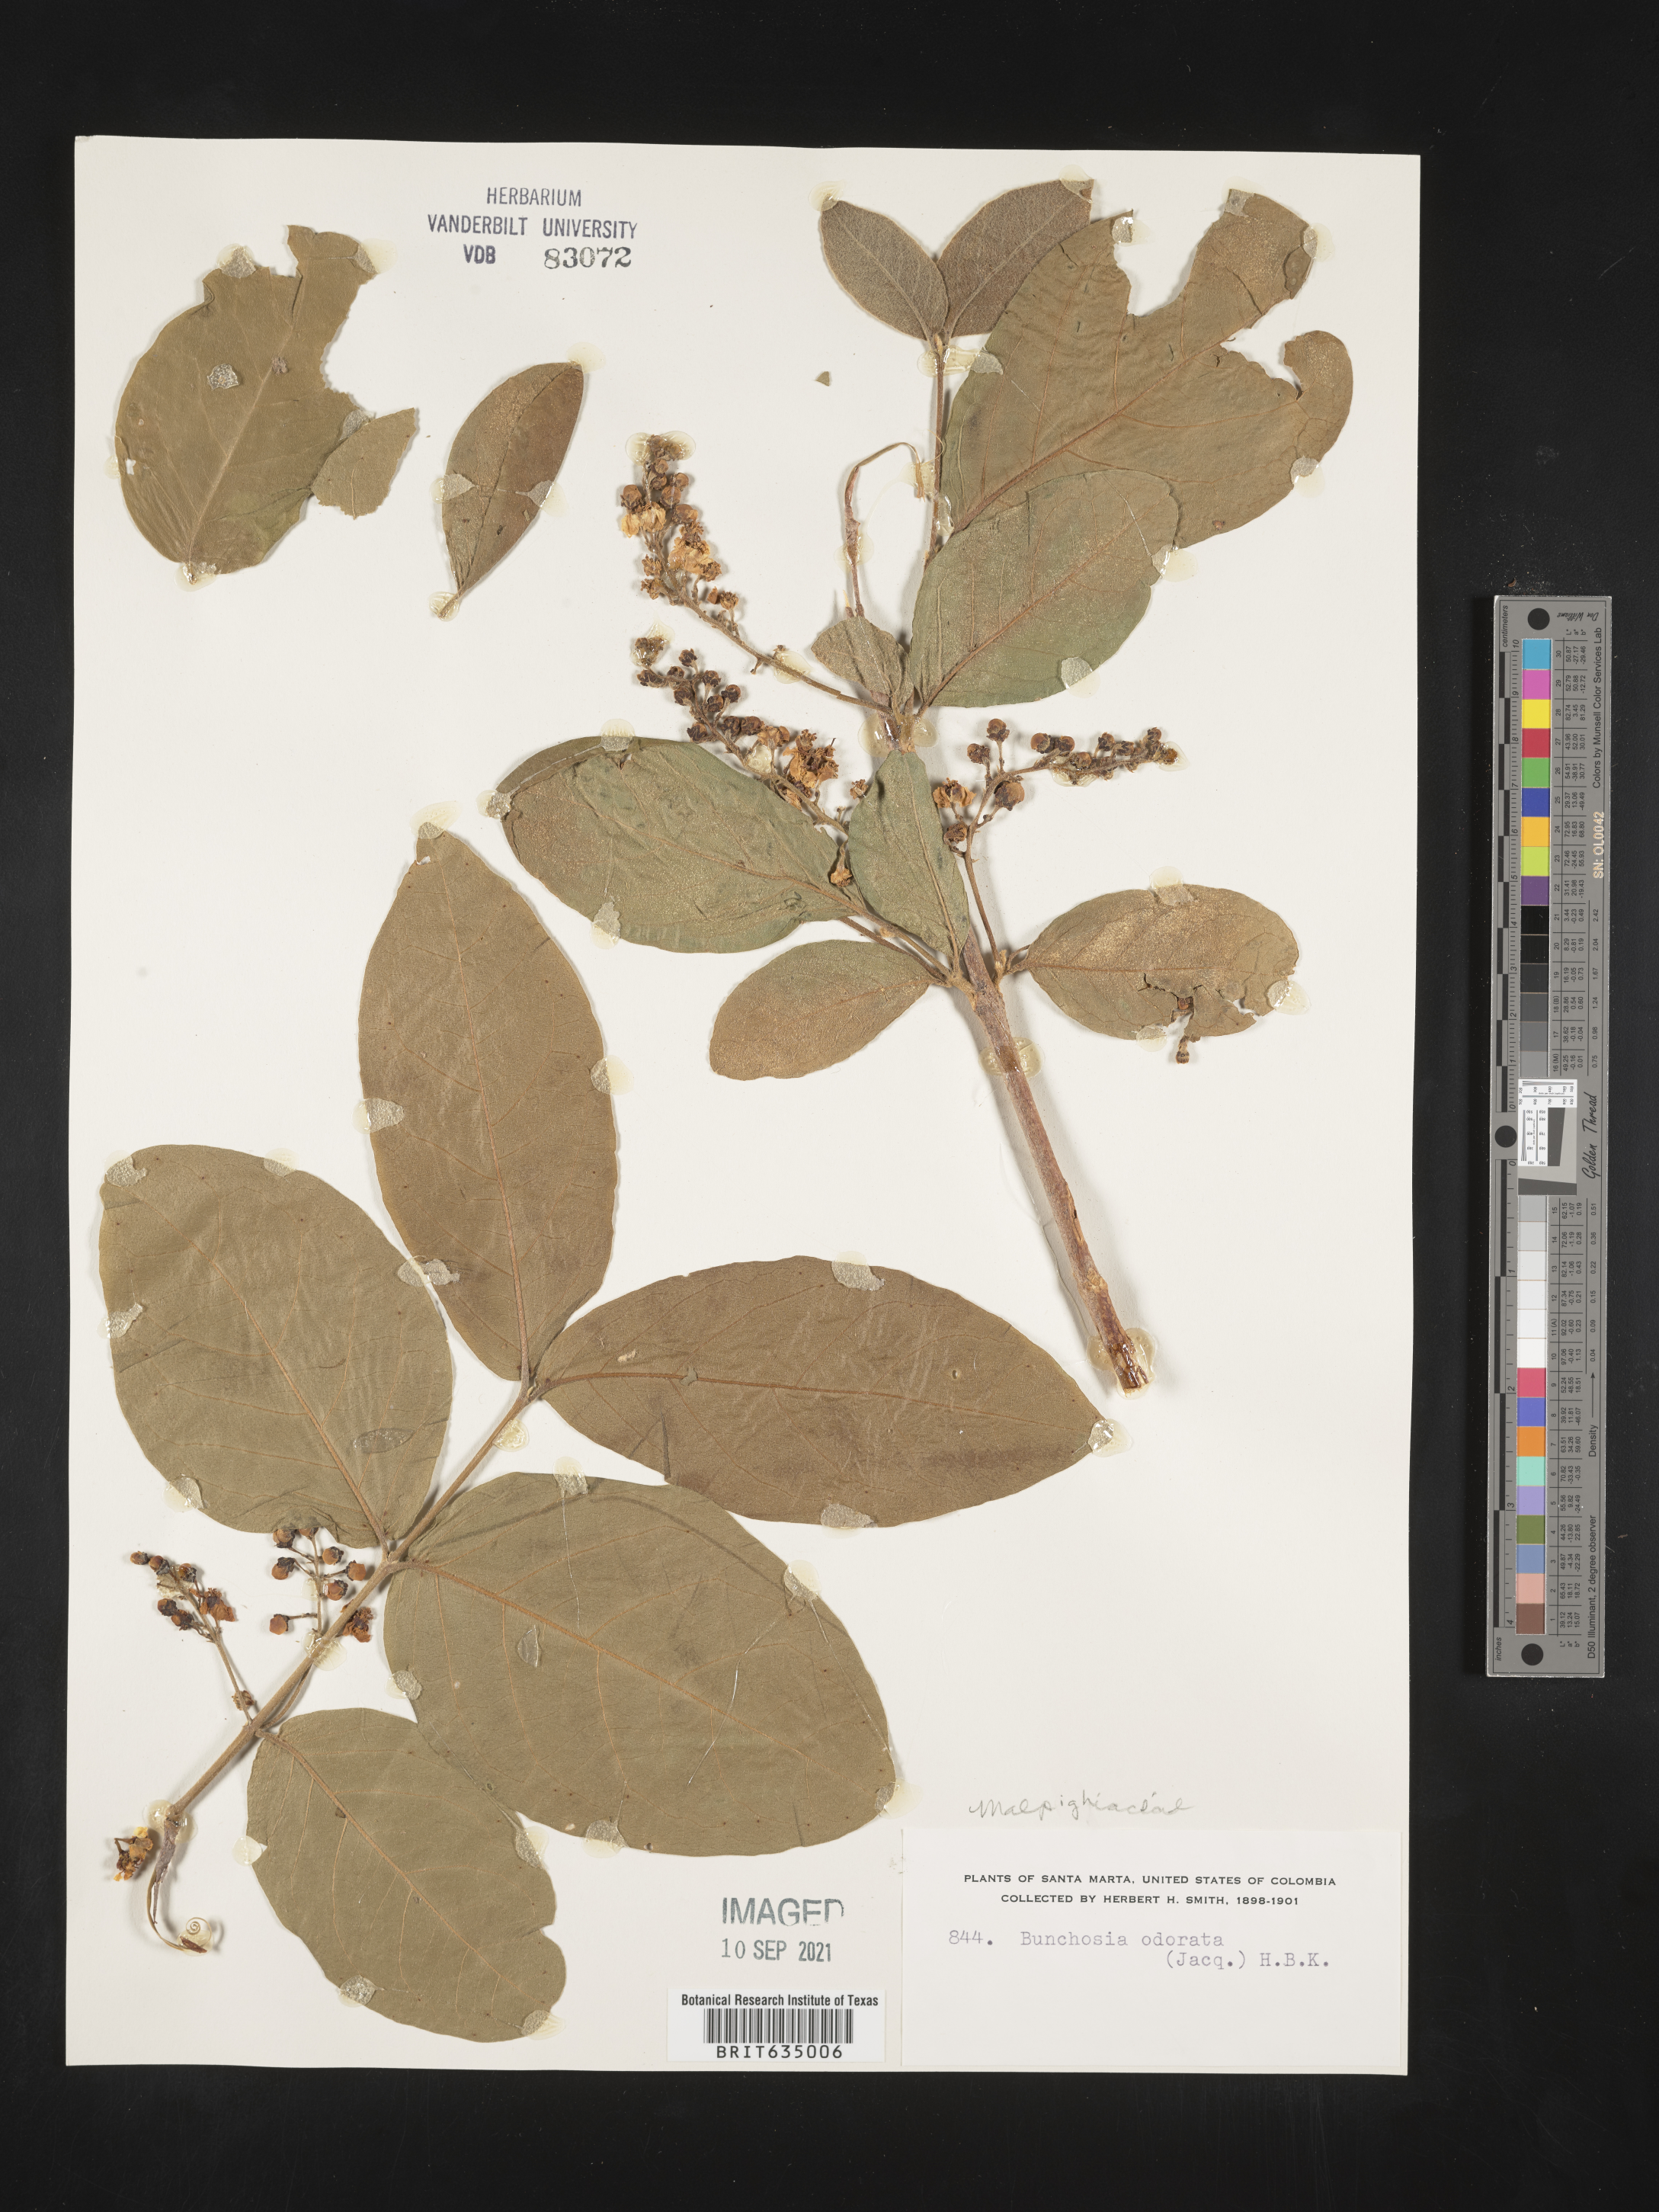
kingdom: Plantae
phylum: Tracheophyta
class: Magnoliopsida
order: Malpighiales
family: Malpighiaceae
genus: Bunchosia
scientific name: Bunchosia
